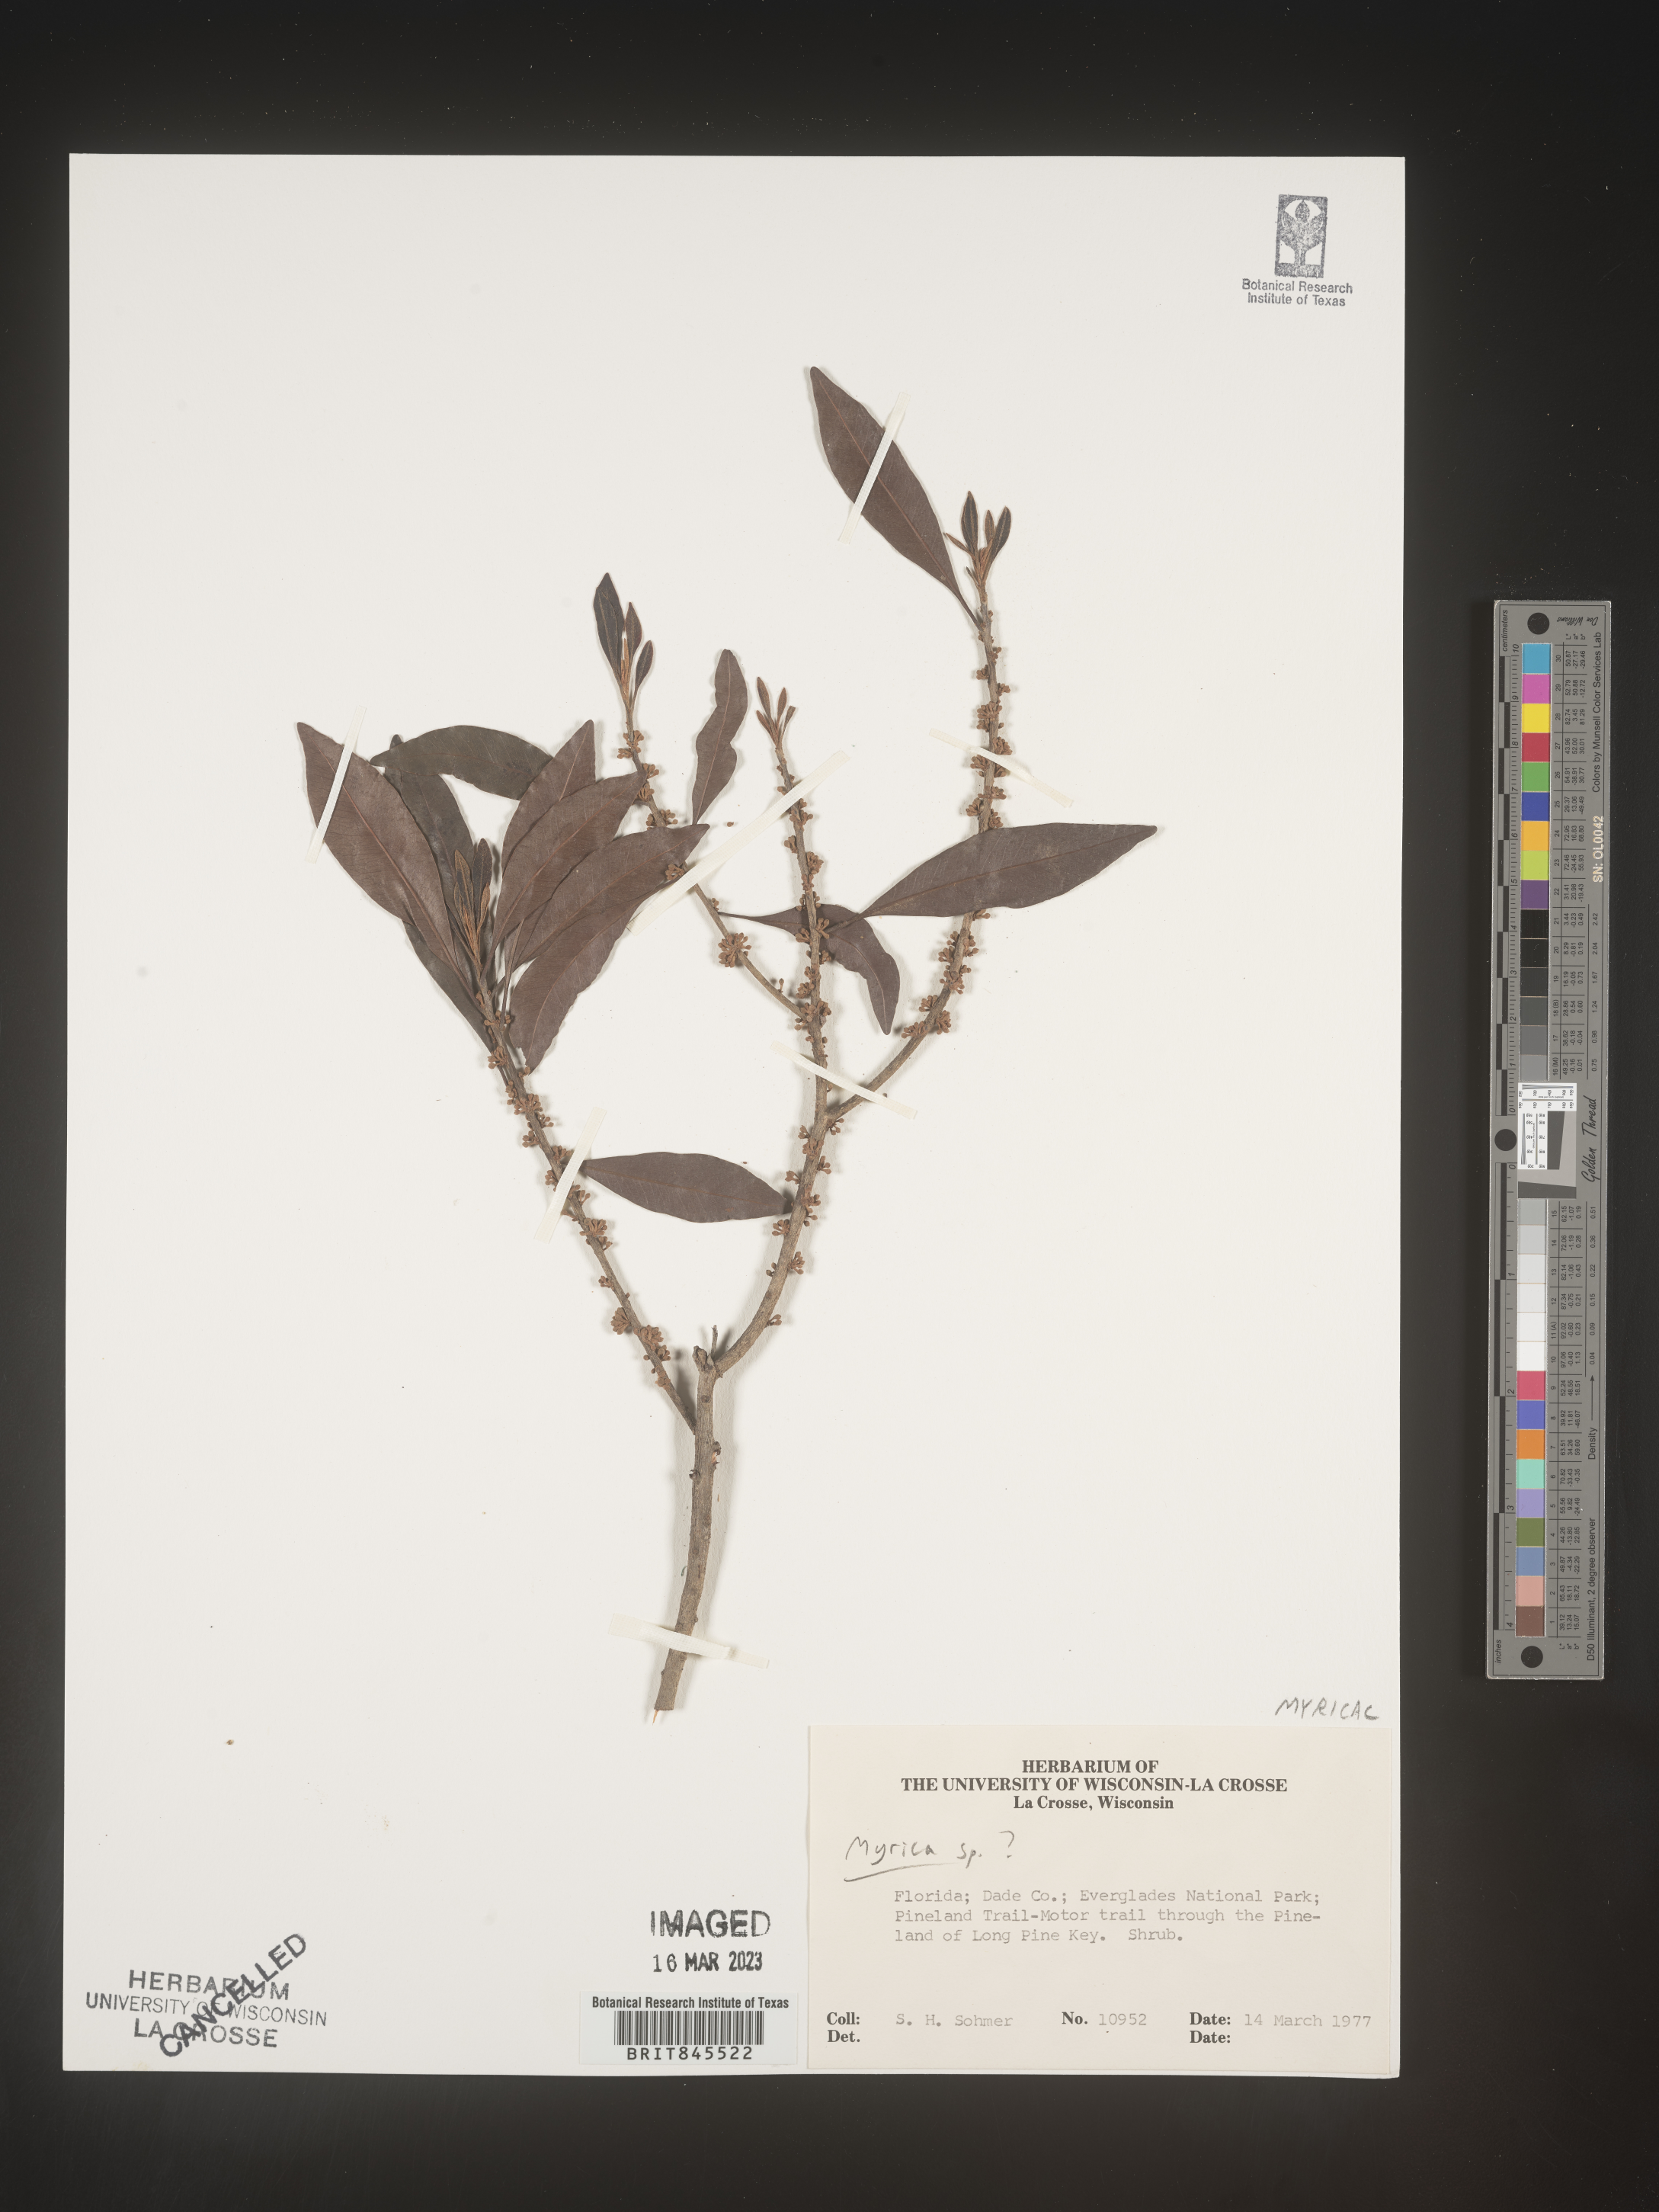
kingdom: Plantae
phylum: Tracheophyta
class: Magnoliopsida
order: Fagales
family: Myricaceae
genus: Myrica
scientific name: Myrica
